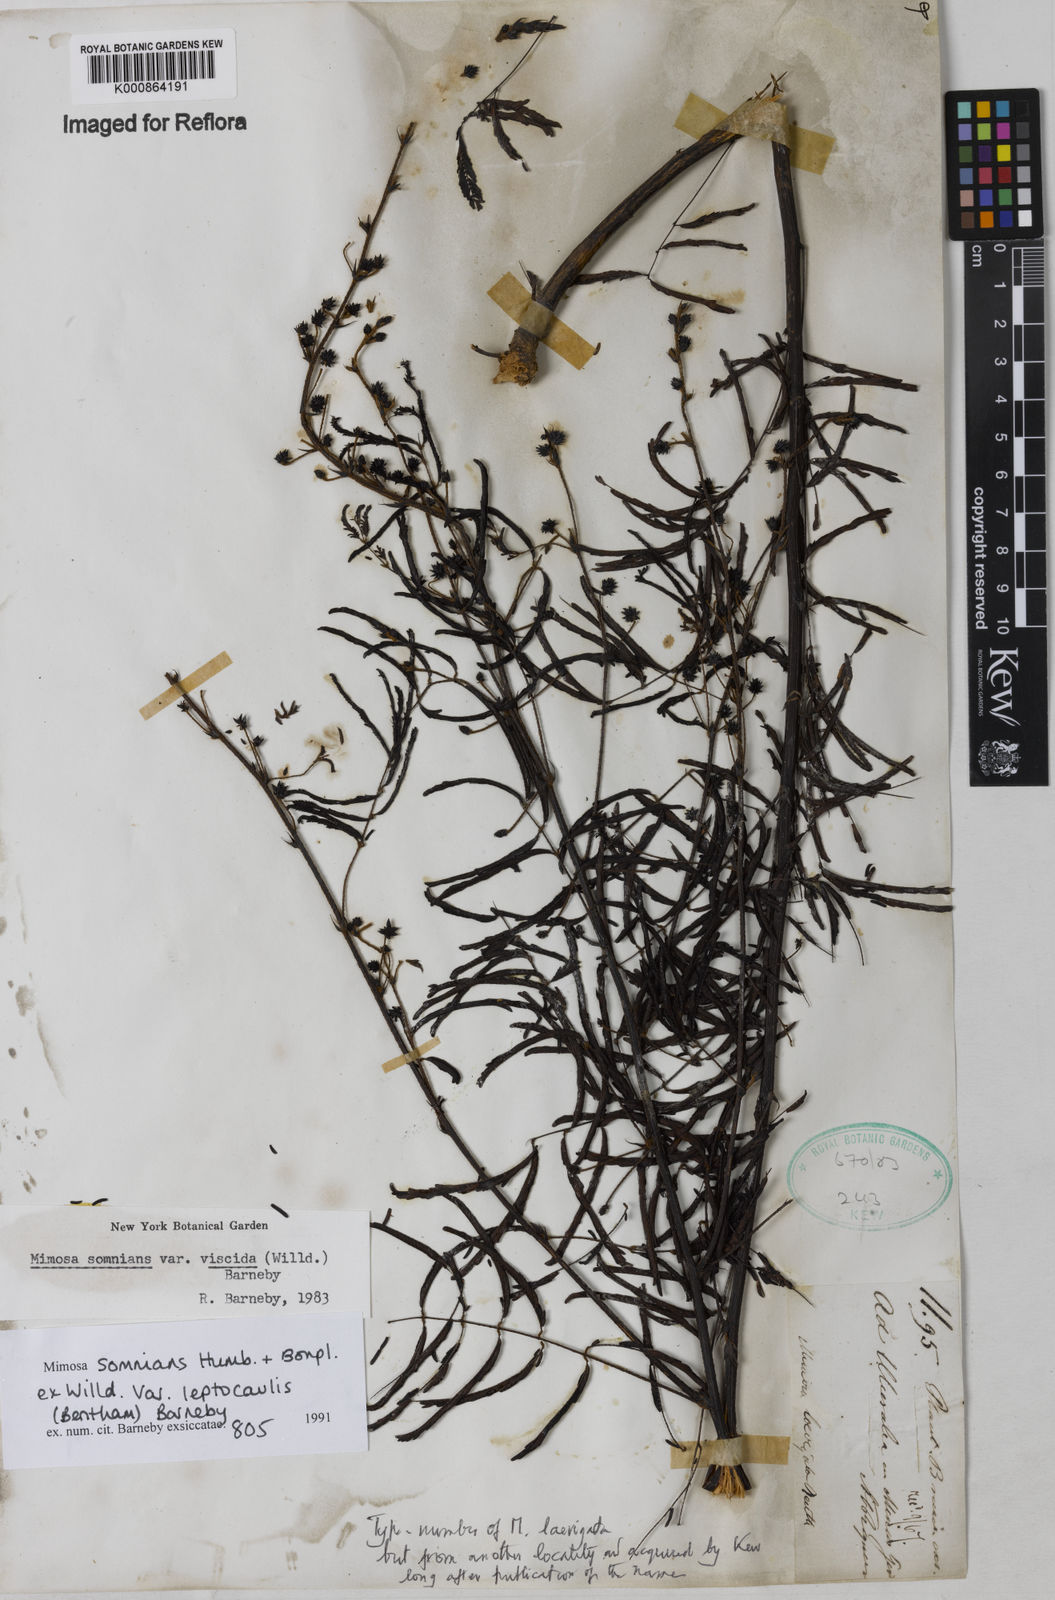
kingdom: Plantae
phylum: Tracheophyta
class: Magnoliopsida
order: Fabales
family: Fabaceae
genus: Mimosa
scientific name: Mimosa somnians
